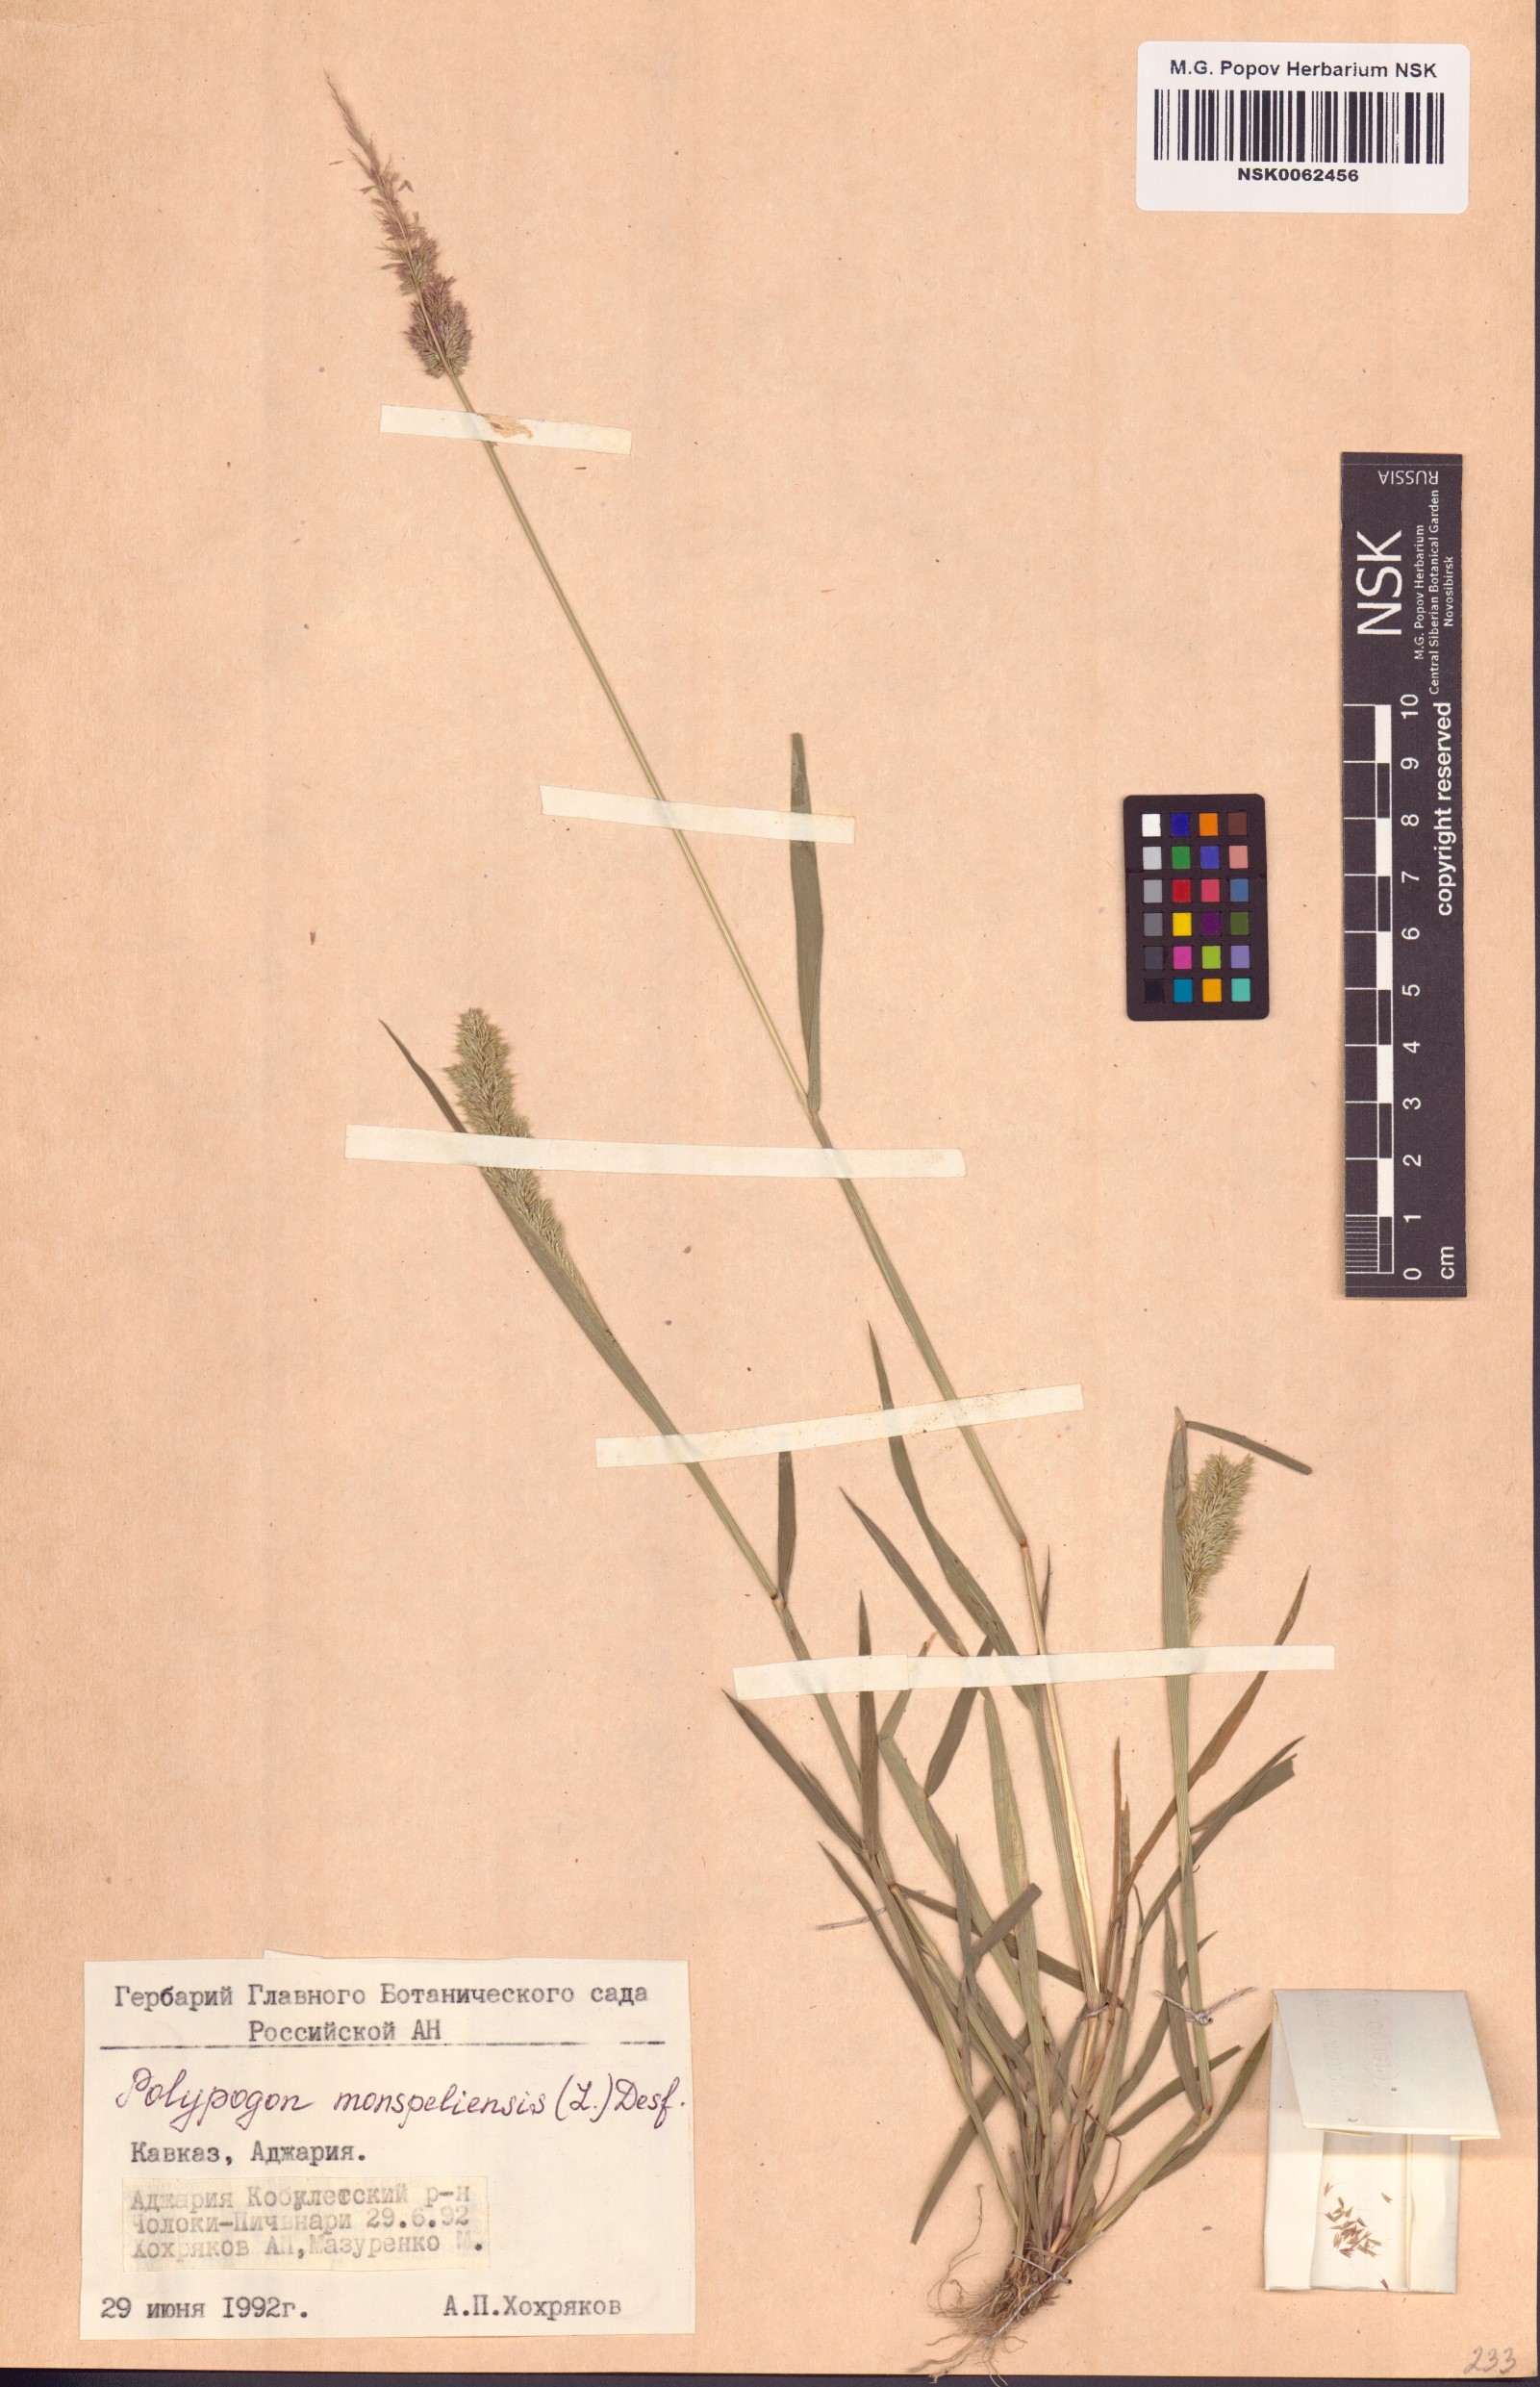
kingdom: Plantae
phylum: Tracheophyta
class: Liliopsida
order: Poales
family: Poaceae
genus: Polypogon
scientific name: Polypogon monspeliensis
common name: Annual rabbitsfoot grass
